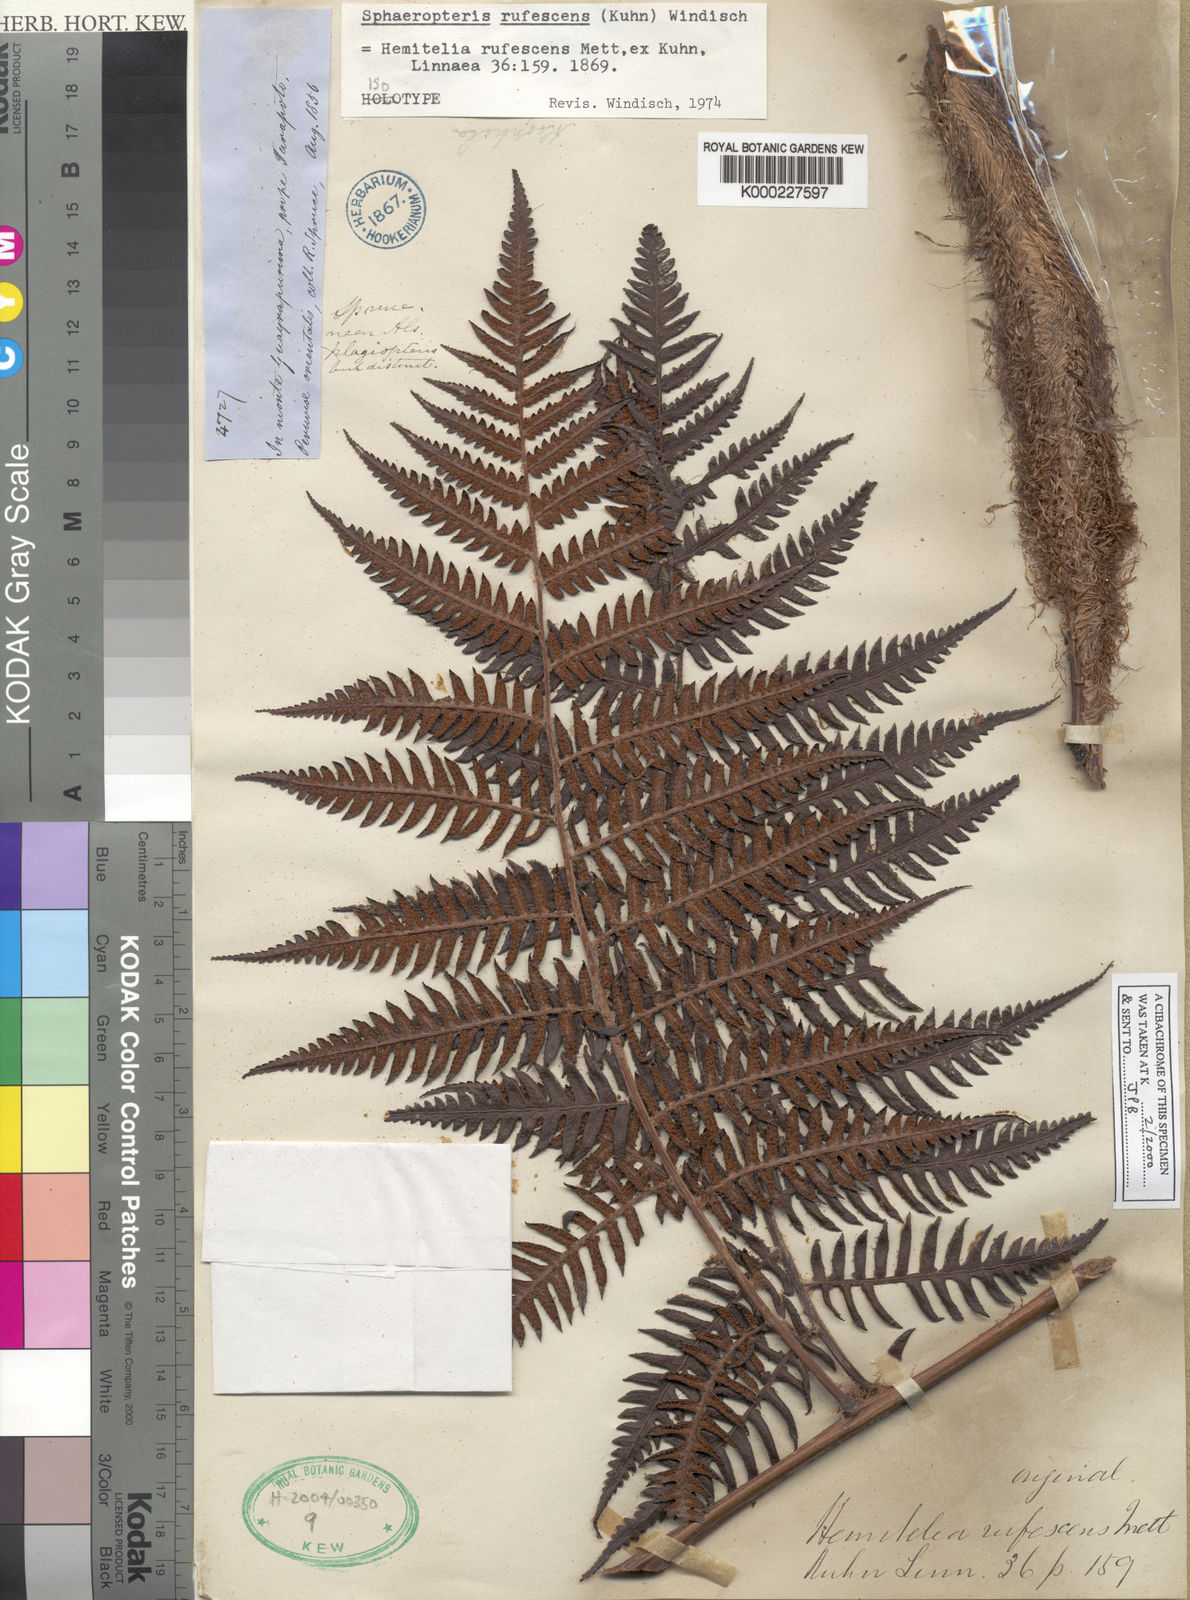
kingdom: Plantae
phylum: Tracheophyta
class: Polypodiopsida
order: Cyatheales
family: Cyatheaceae
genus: Cyathea
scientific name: Cyathea rufescens
